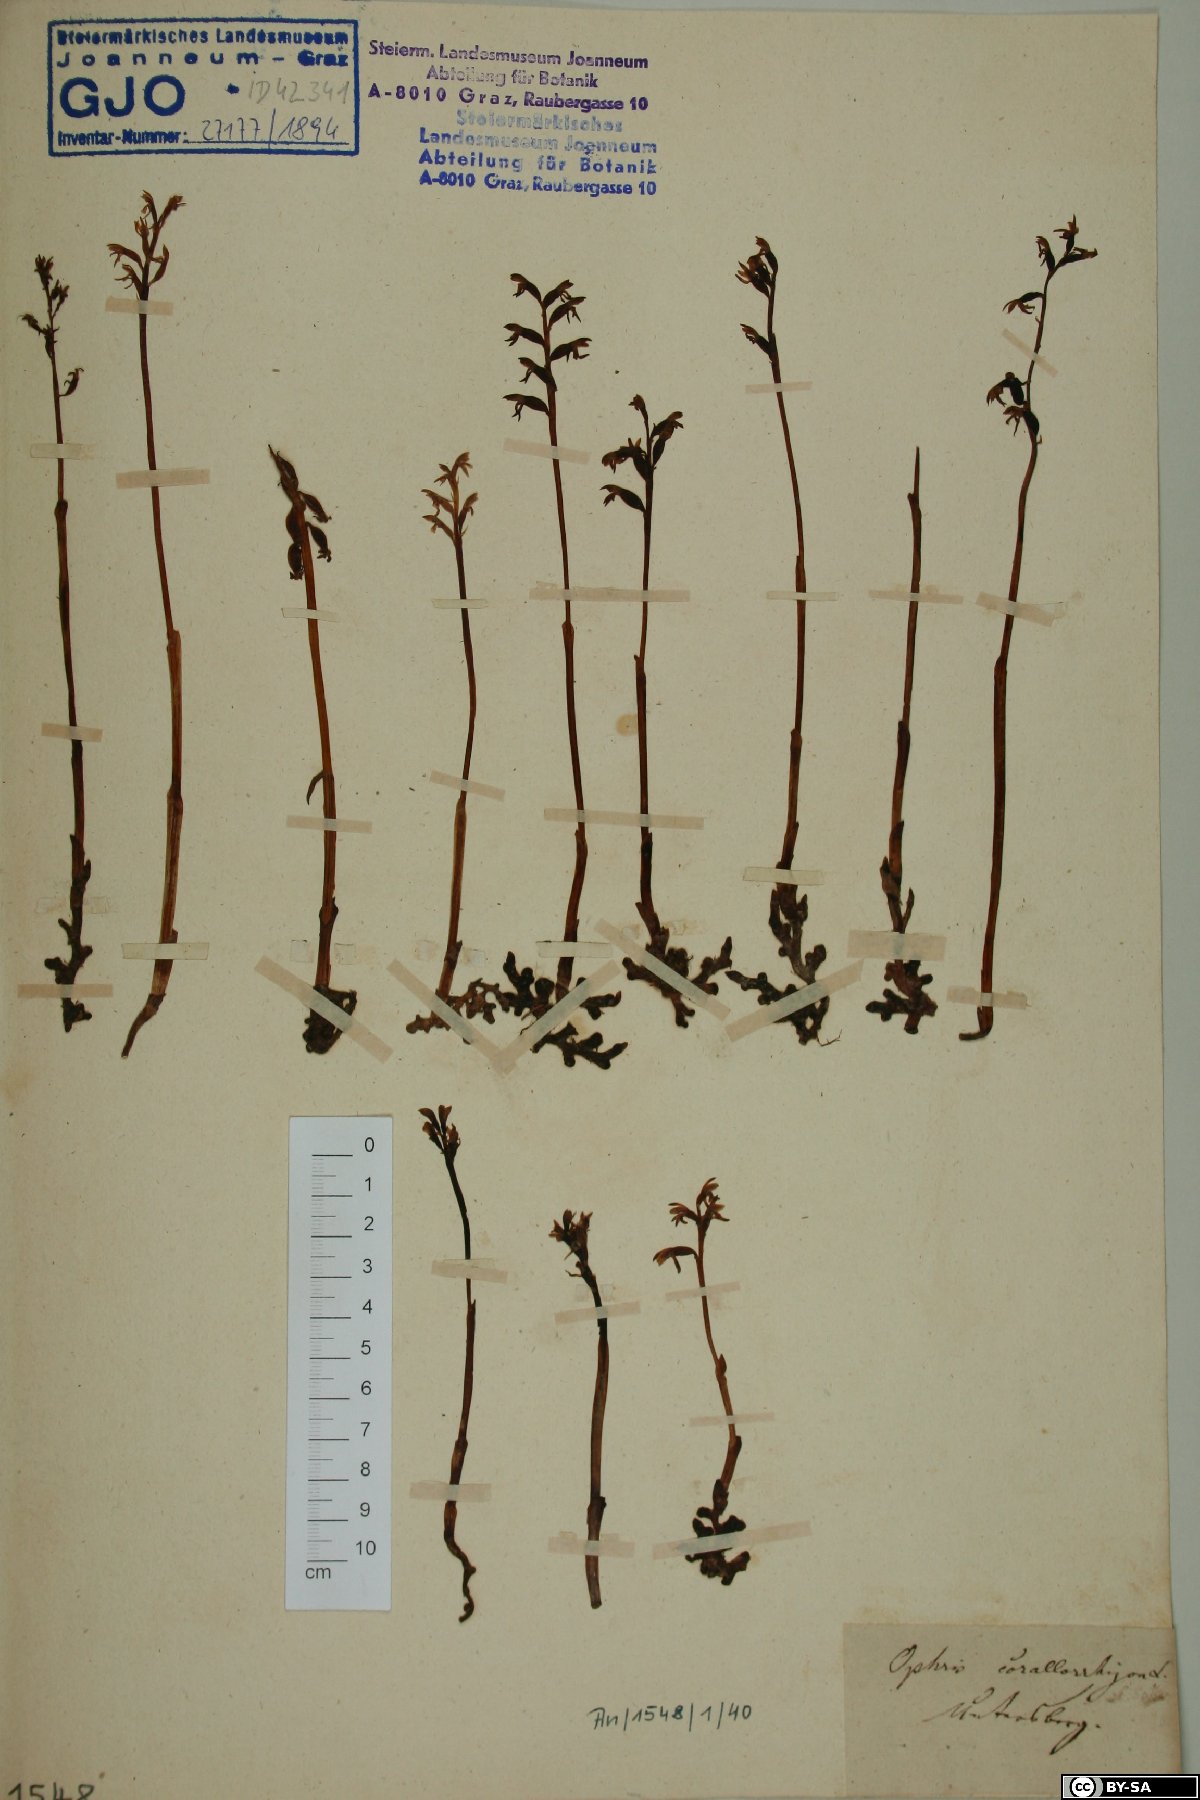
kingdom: Plantae
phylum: Tracheophyta
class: Liliopsida
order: Asparagales
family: Orchidaceae
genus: Corallorhiza
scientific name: Corallorhiza trifida
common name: Yellow coralroot
